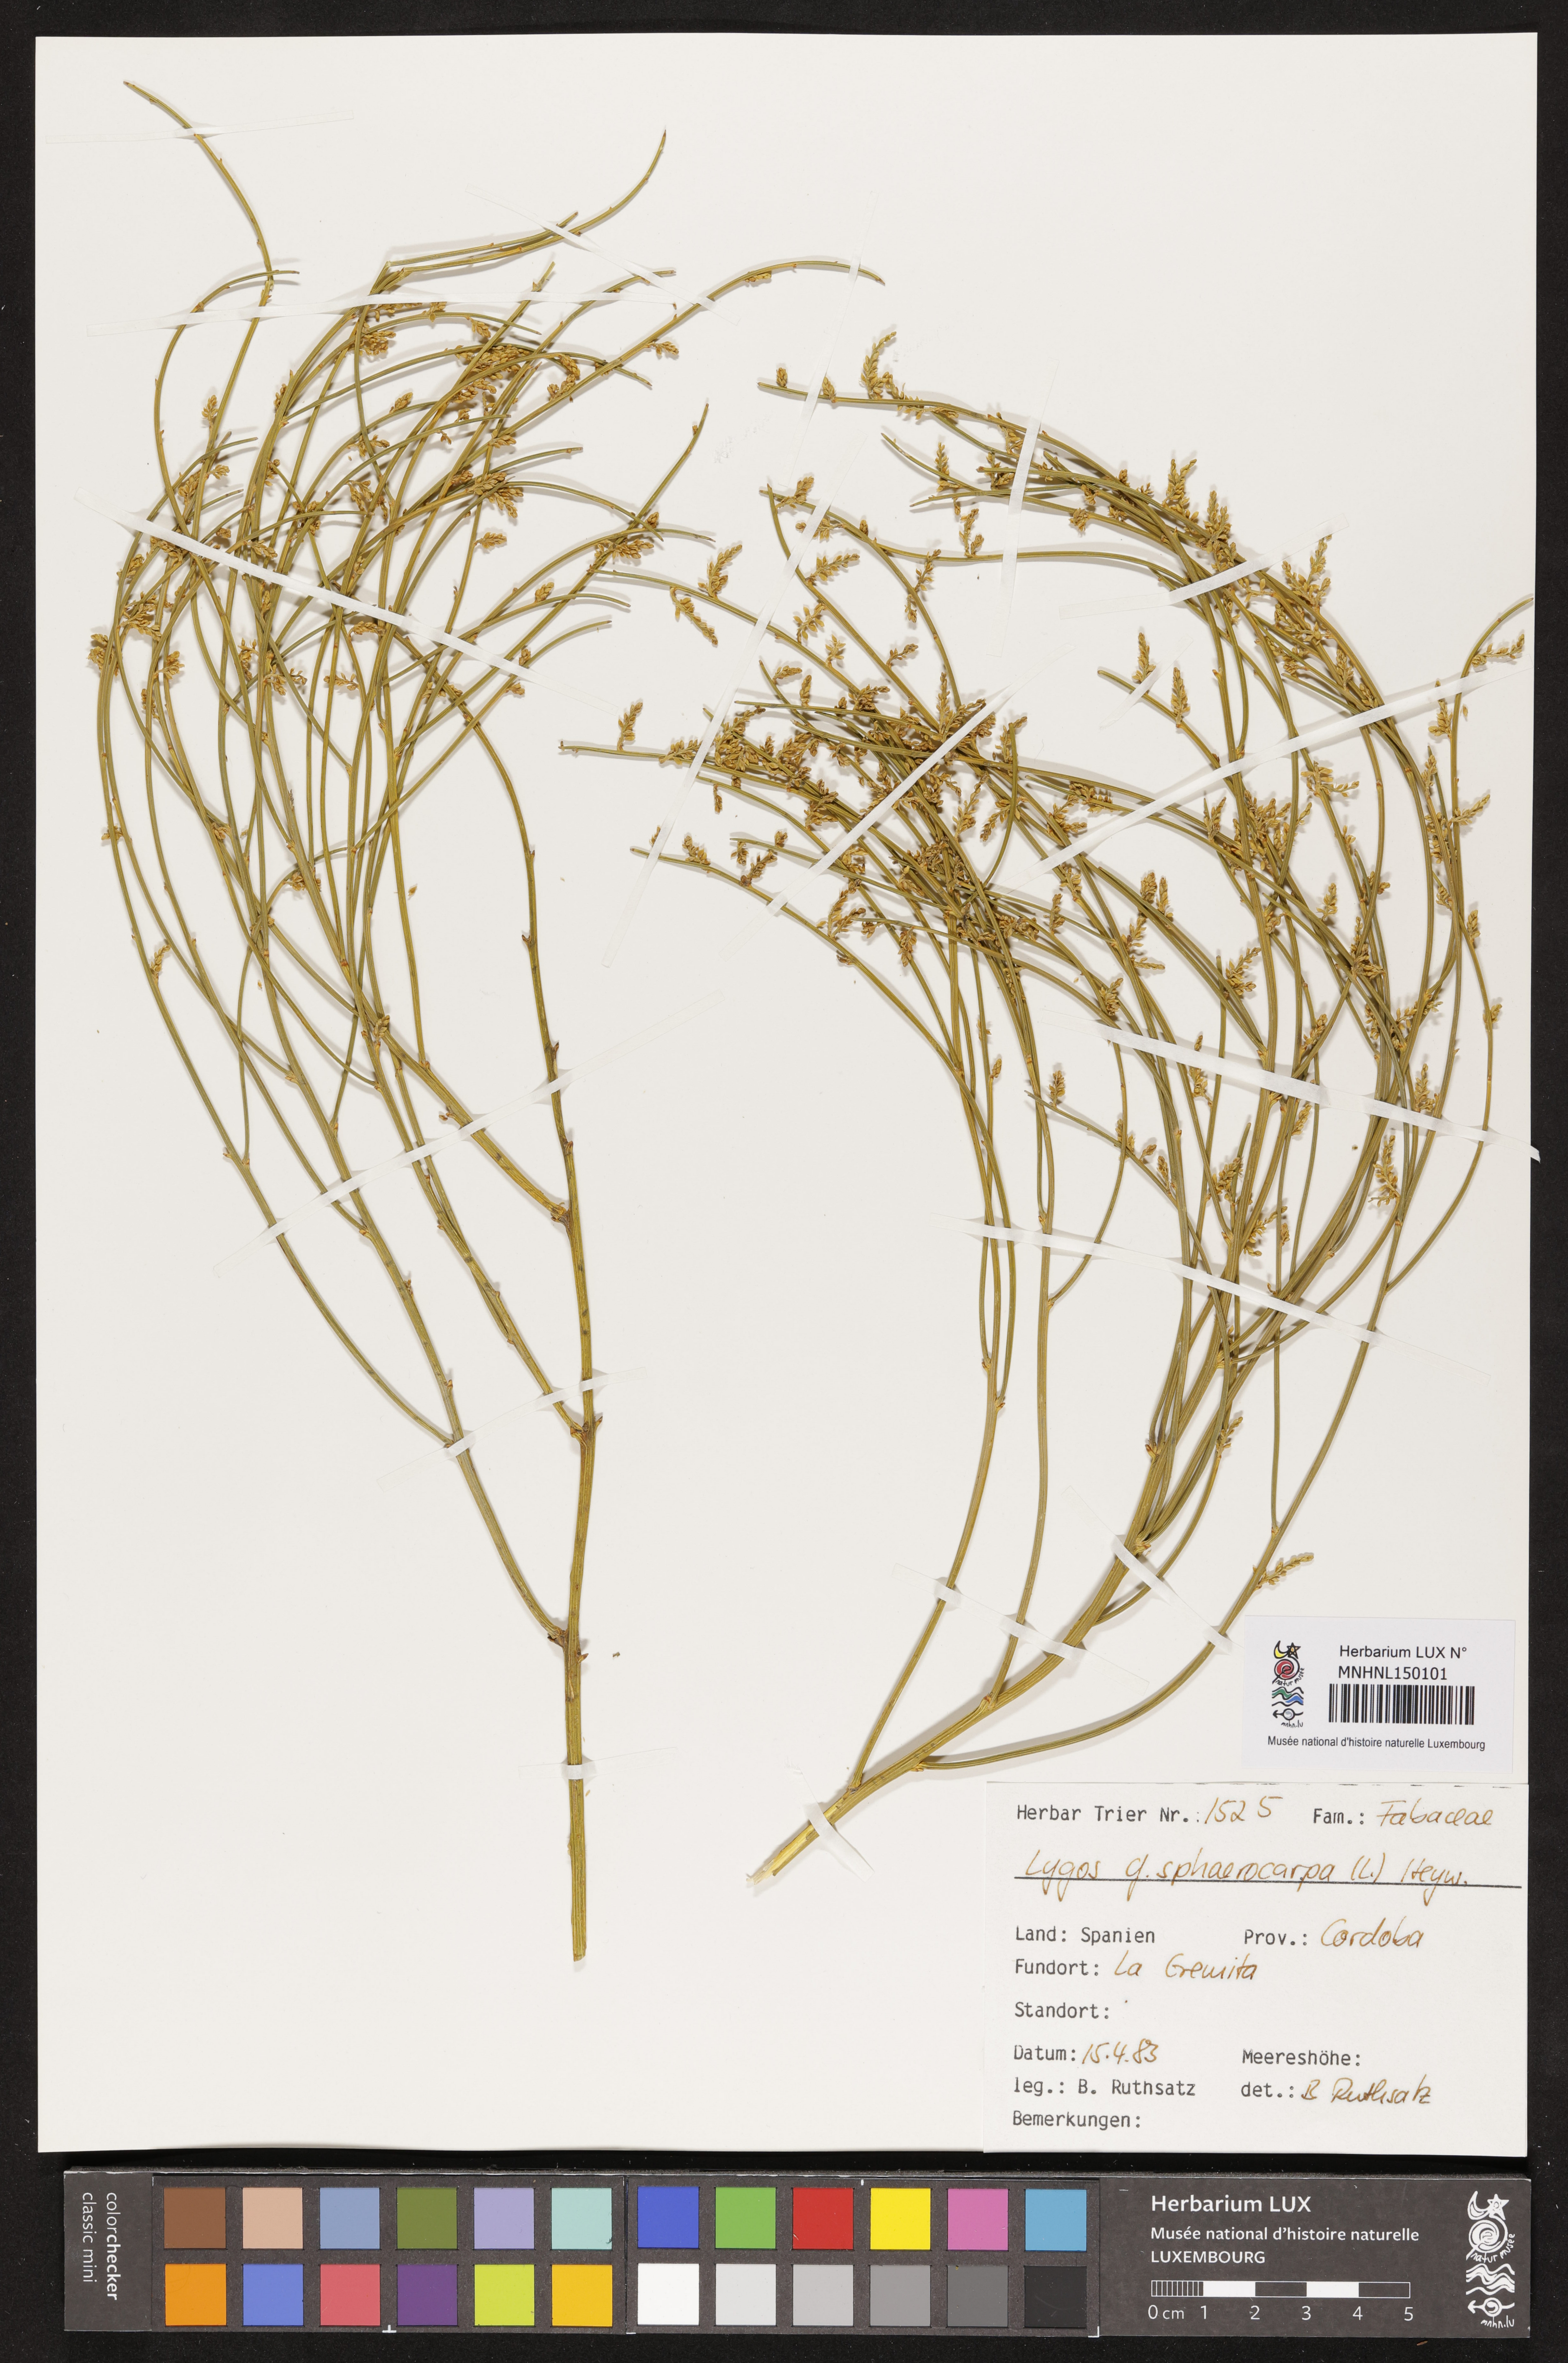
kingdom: Plantae
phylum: Tracheophyta
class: Magnoliopsida
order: Fabales
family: Fabaceae
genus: Retama
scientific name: Retama sphaerocarpa
